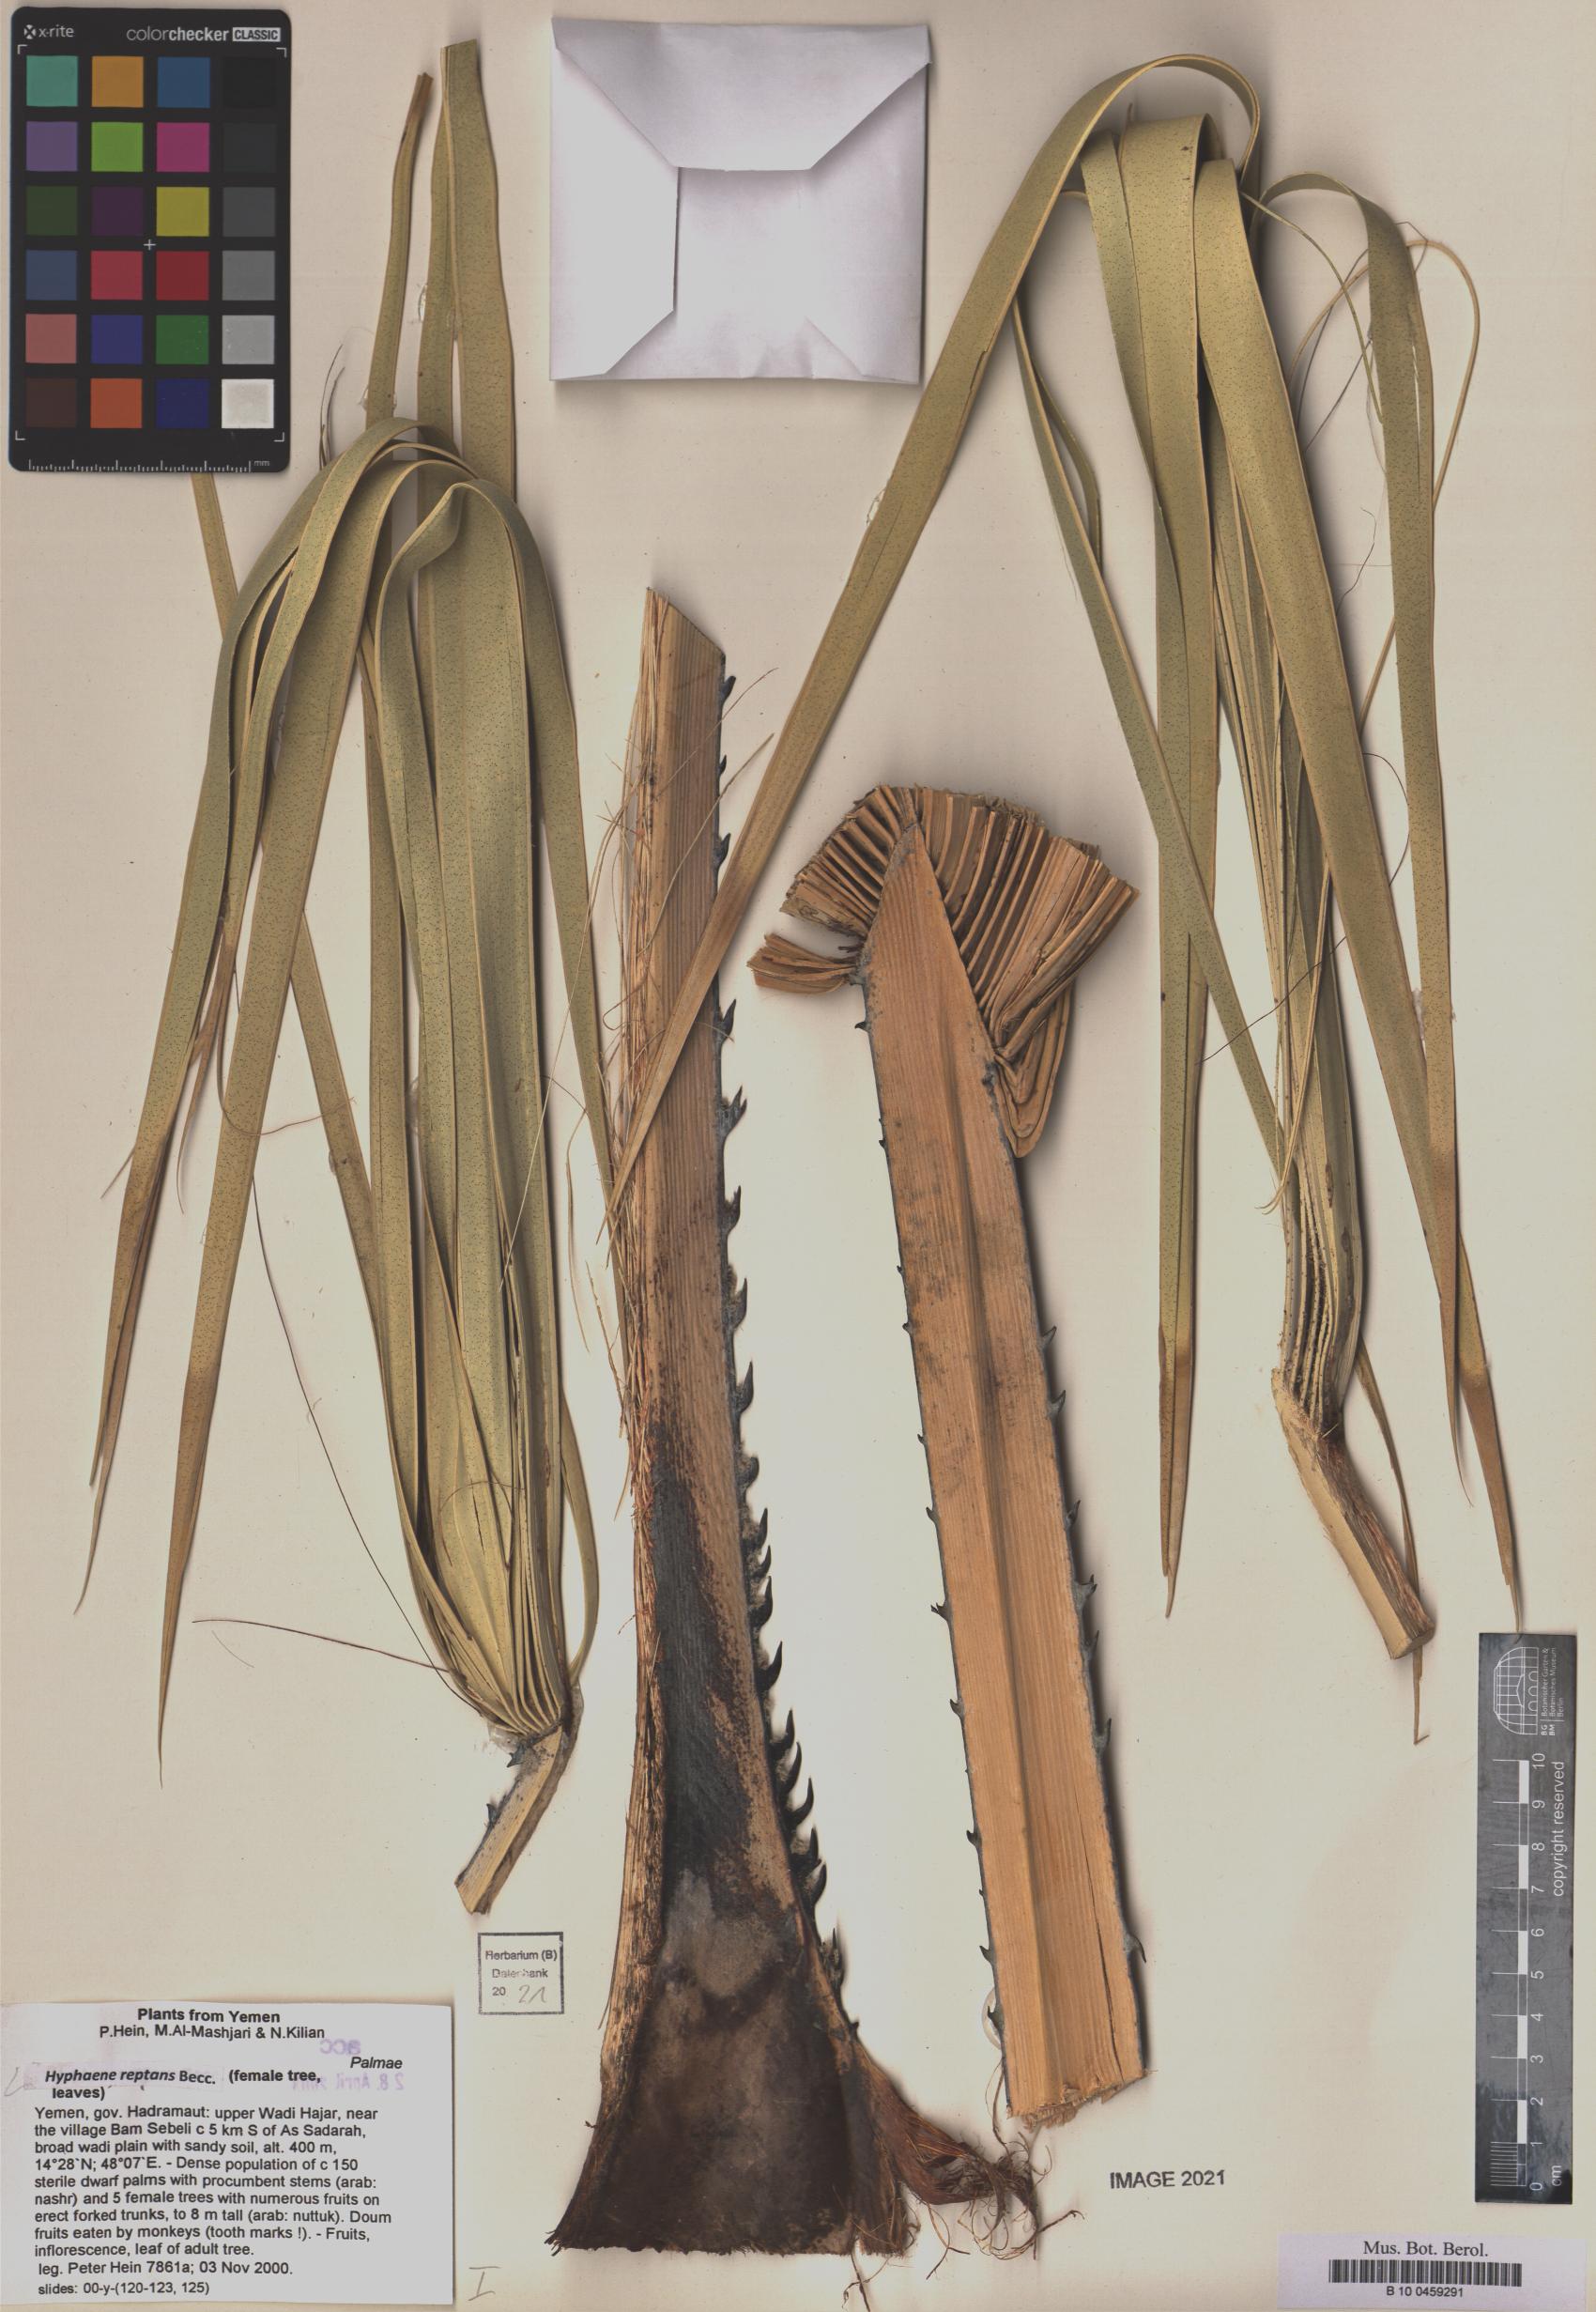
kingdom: Plantae
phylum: Tracheophyta
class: Liliopsida
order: Arecales
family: Arecaceae
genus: Hyphaene
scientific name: Hyphaene reptans
